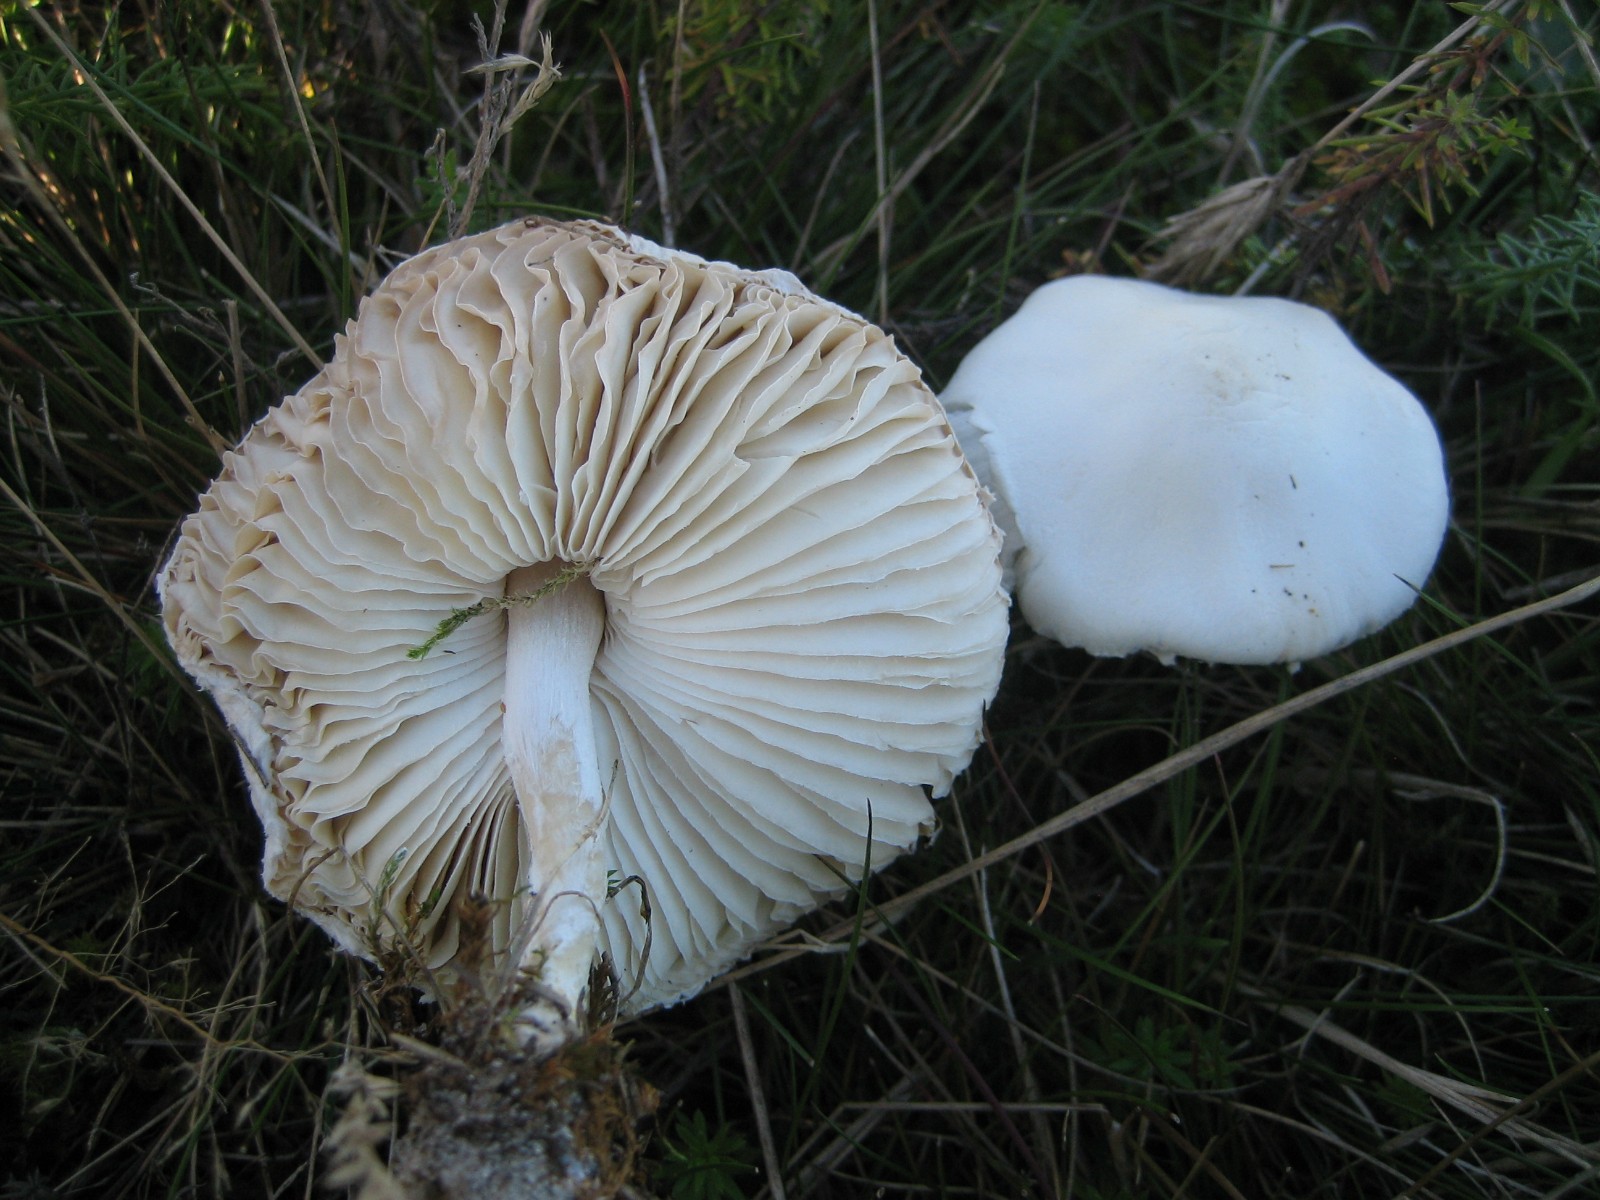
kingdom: Fungi
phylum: Basidiomycota
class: Agaricomycetes
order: Agaricales
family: Agaricaceae
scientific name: Agaricaceae
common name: champignonfamilien
